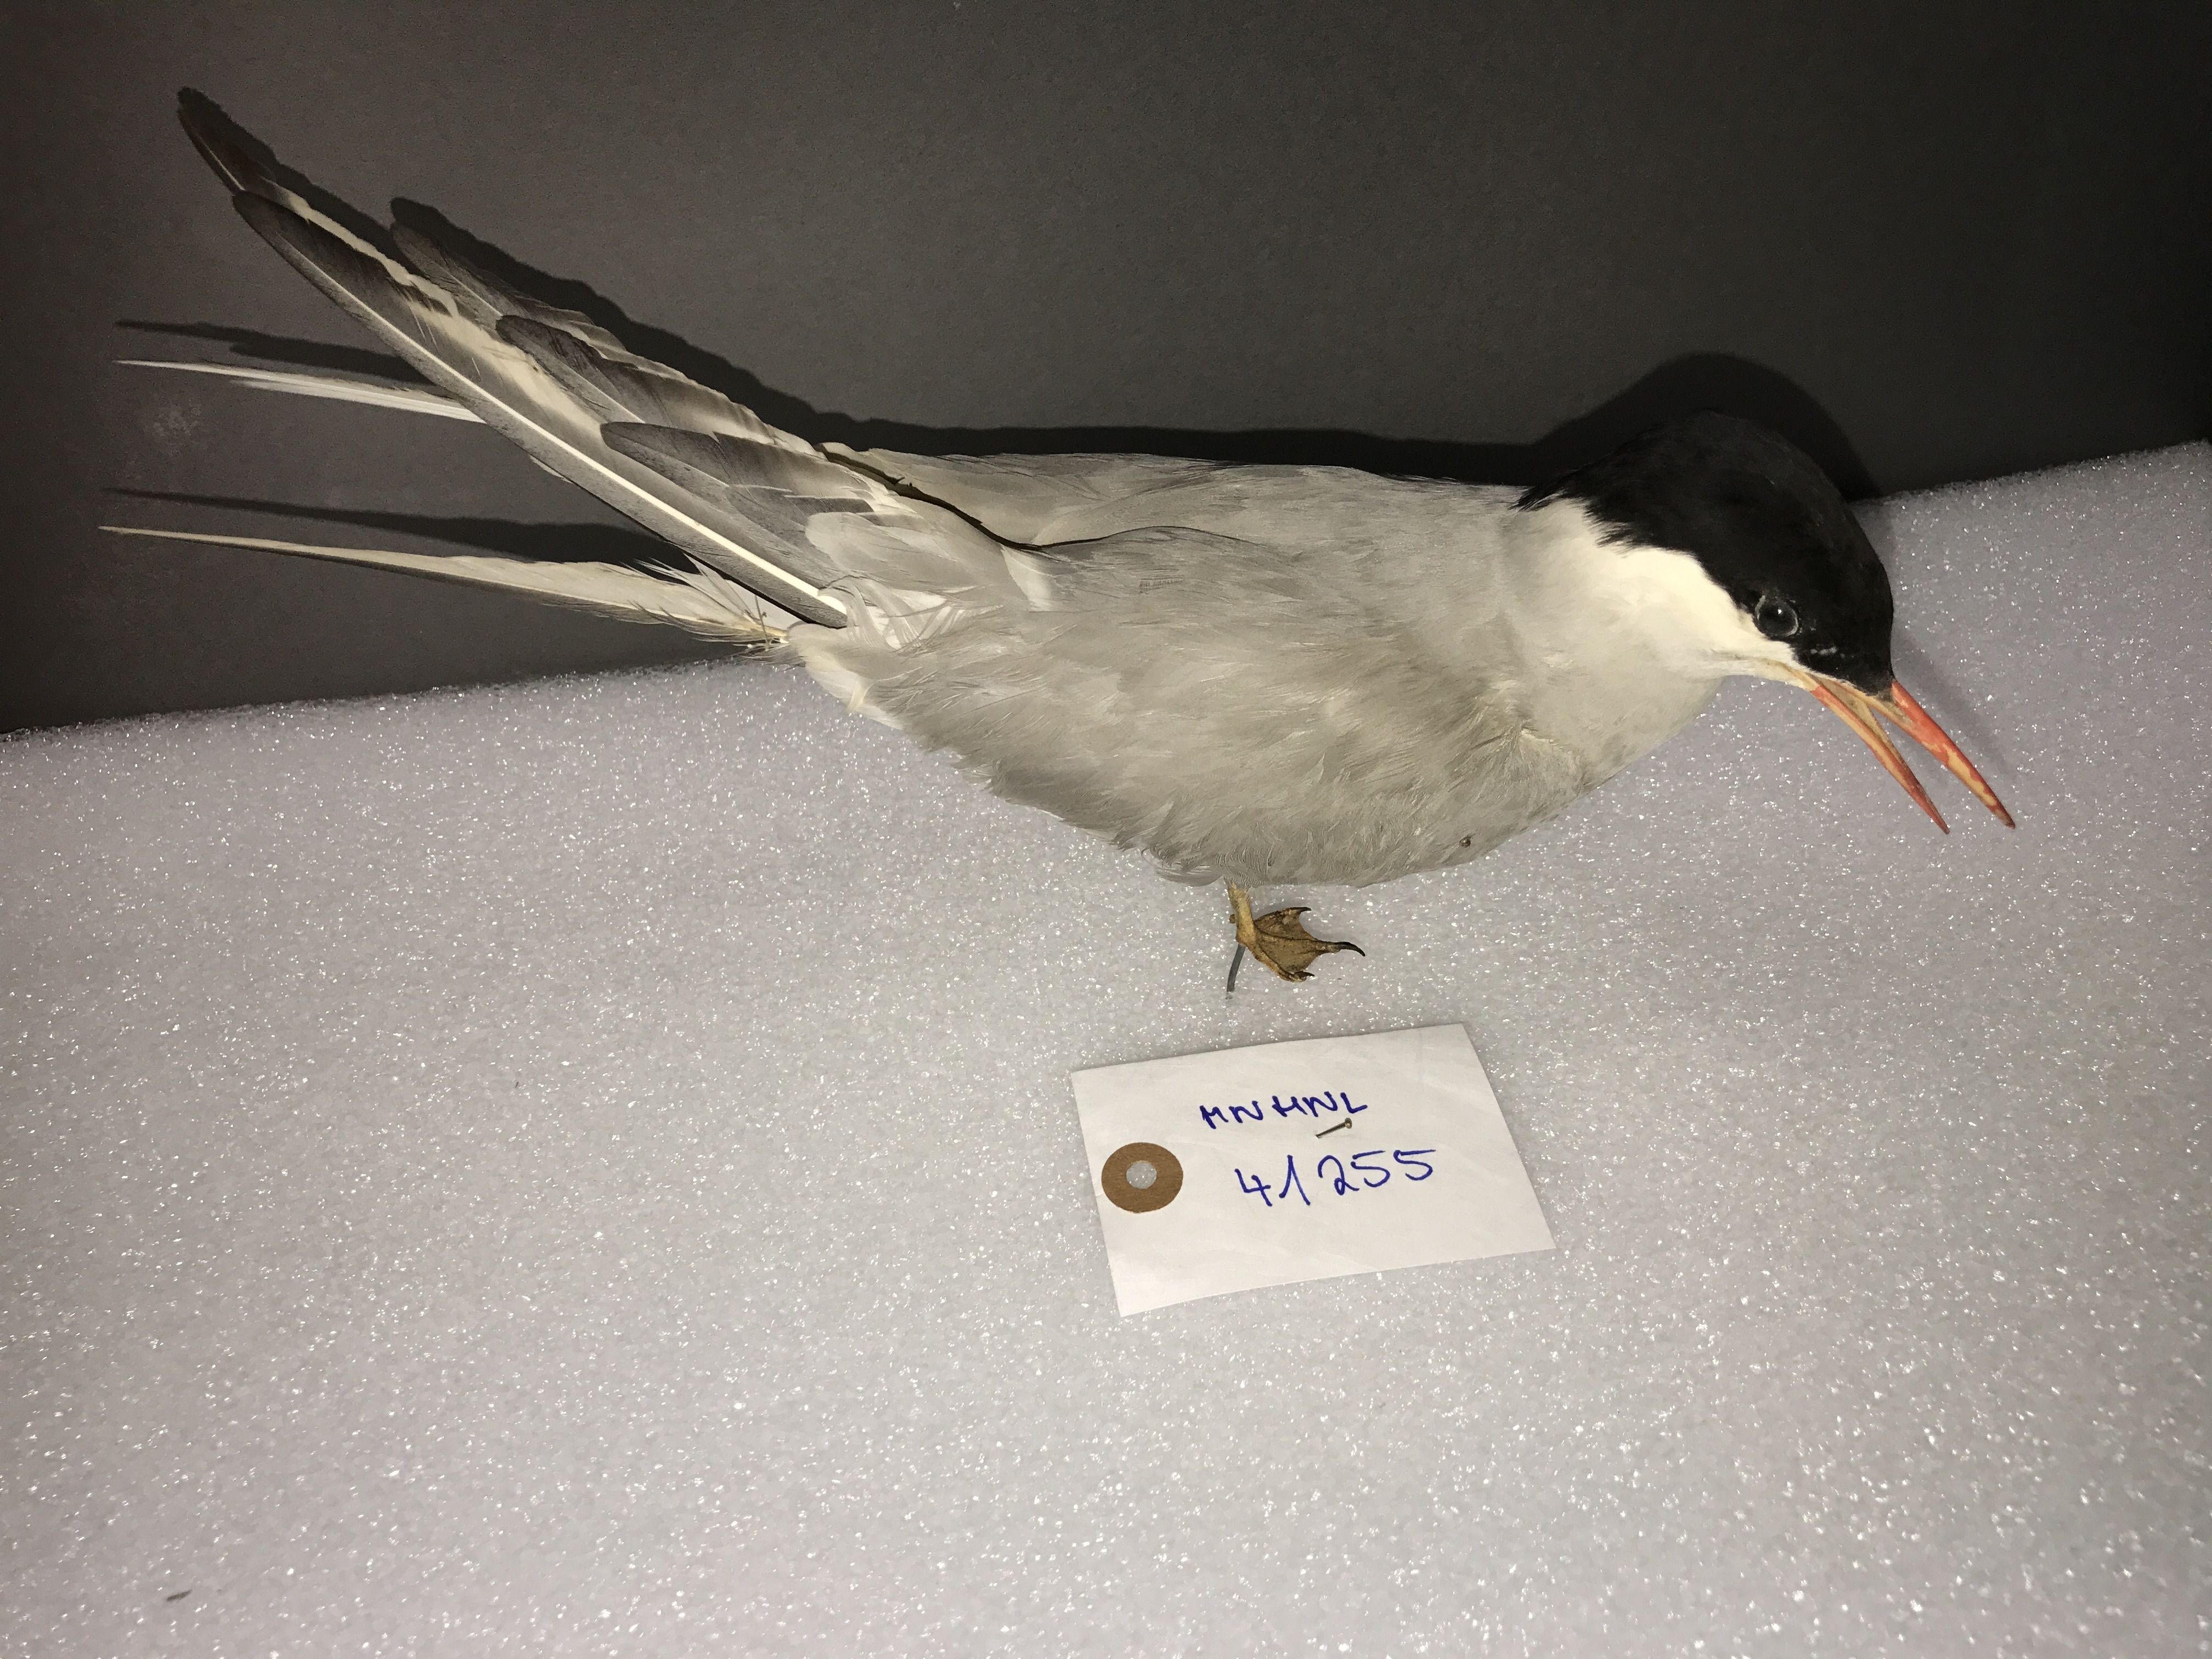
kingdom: Animalia
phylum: Chordata
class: Aves
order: Charadriiformes
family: Laridae
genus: Sterna
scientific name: Sterna paradisaea
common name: Arctic tern
